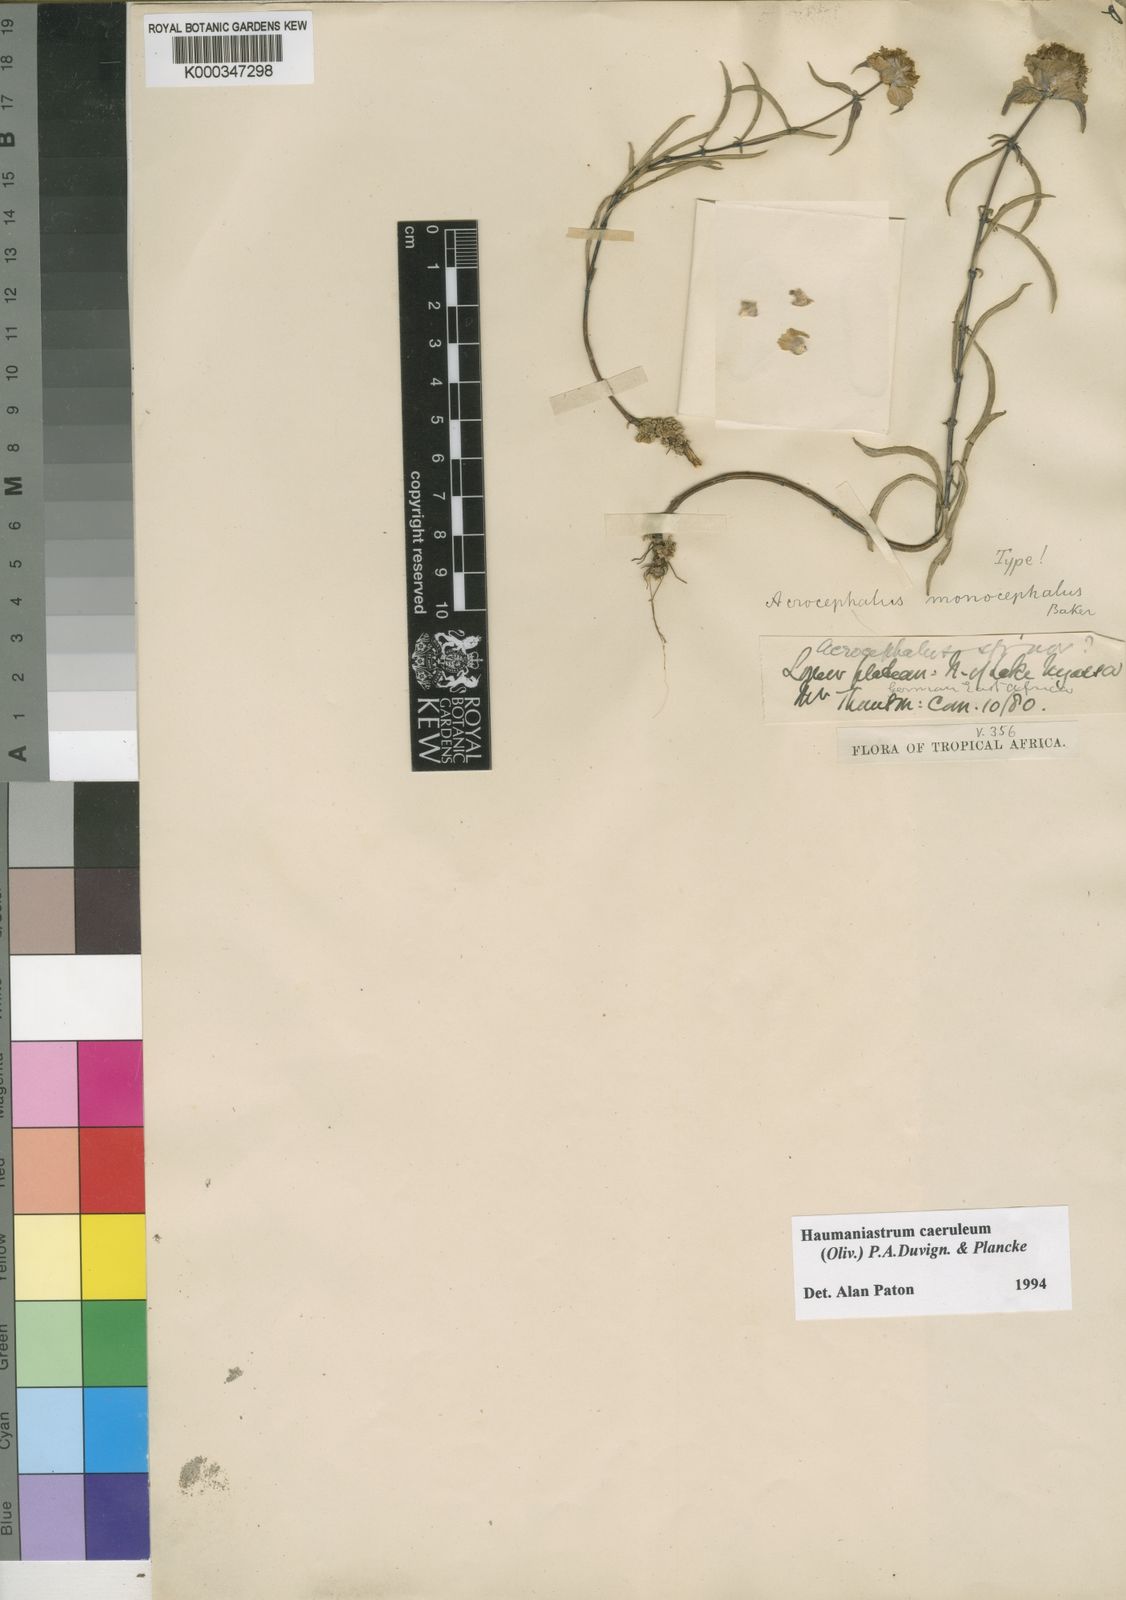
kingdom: Plantae
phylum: Tracheophyta
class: Magnoliopsida
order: Lamiales
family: Lamiaceae
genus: Haumaniastrum
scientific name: Haumaniastrum caeruleum
